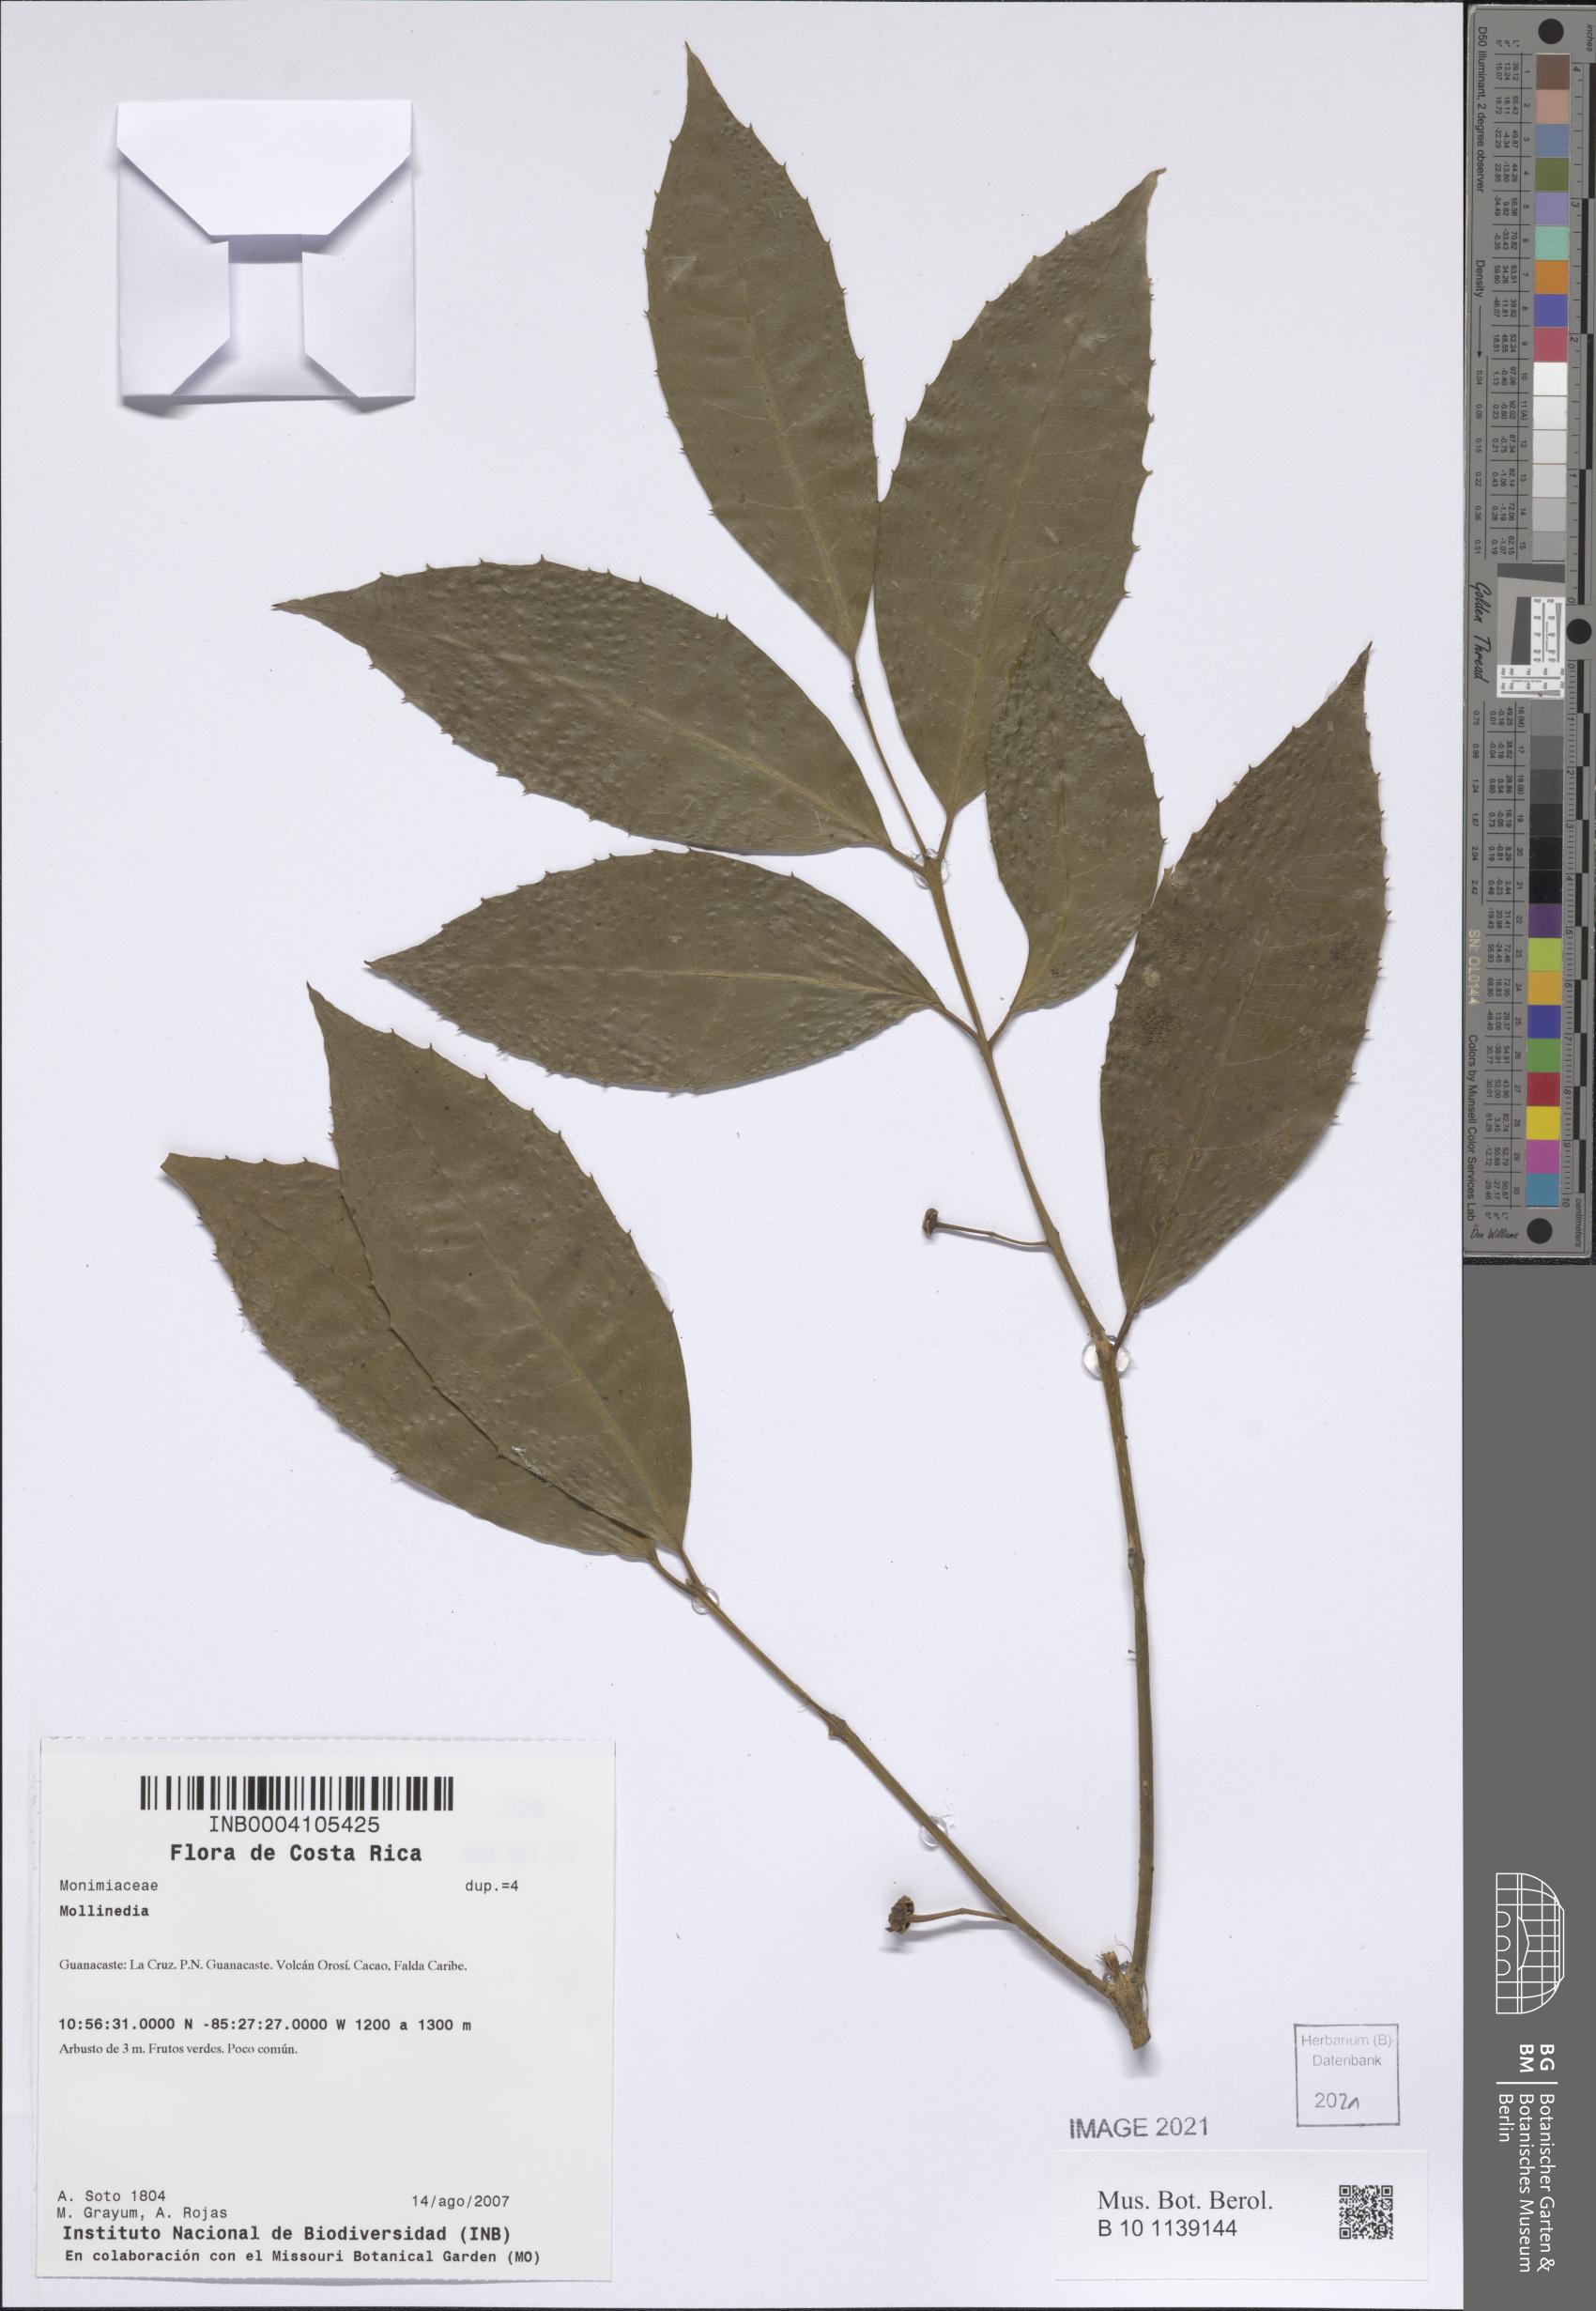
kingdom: Plantae
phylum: Tracheophyta
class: Magnoliopsida
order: Laurales
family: Monimiaceae
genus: Mollinedia
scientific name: Mollinedia viridiflora
